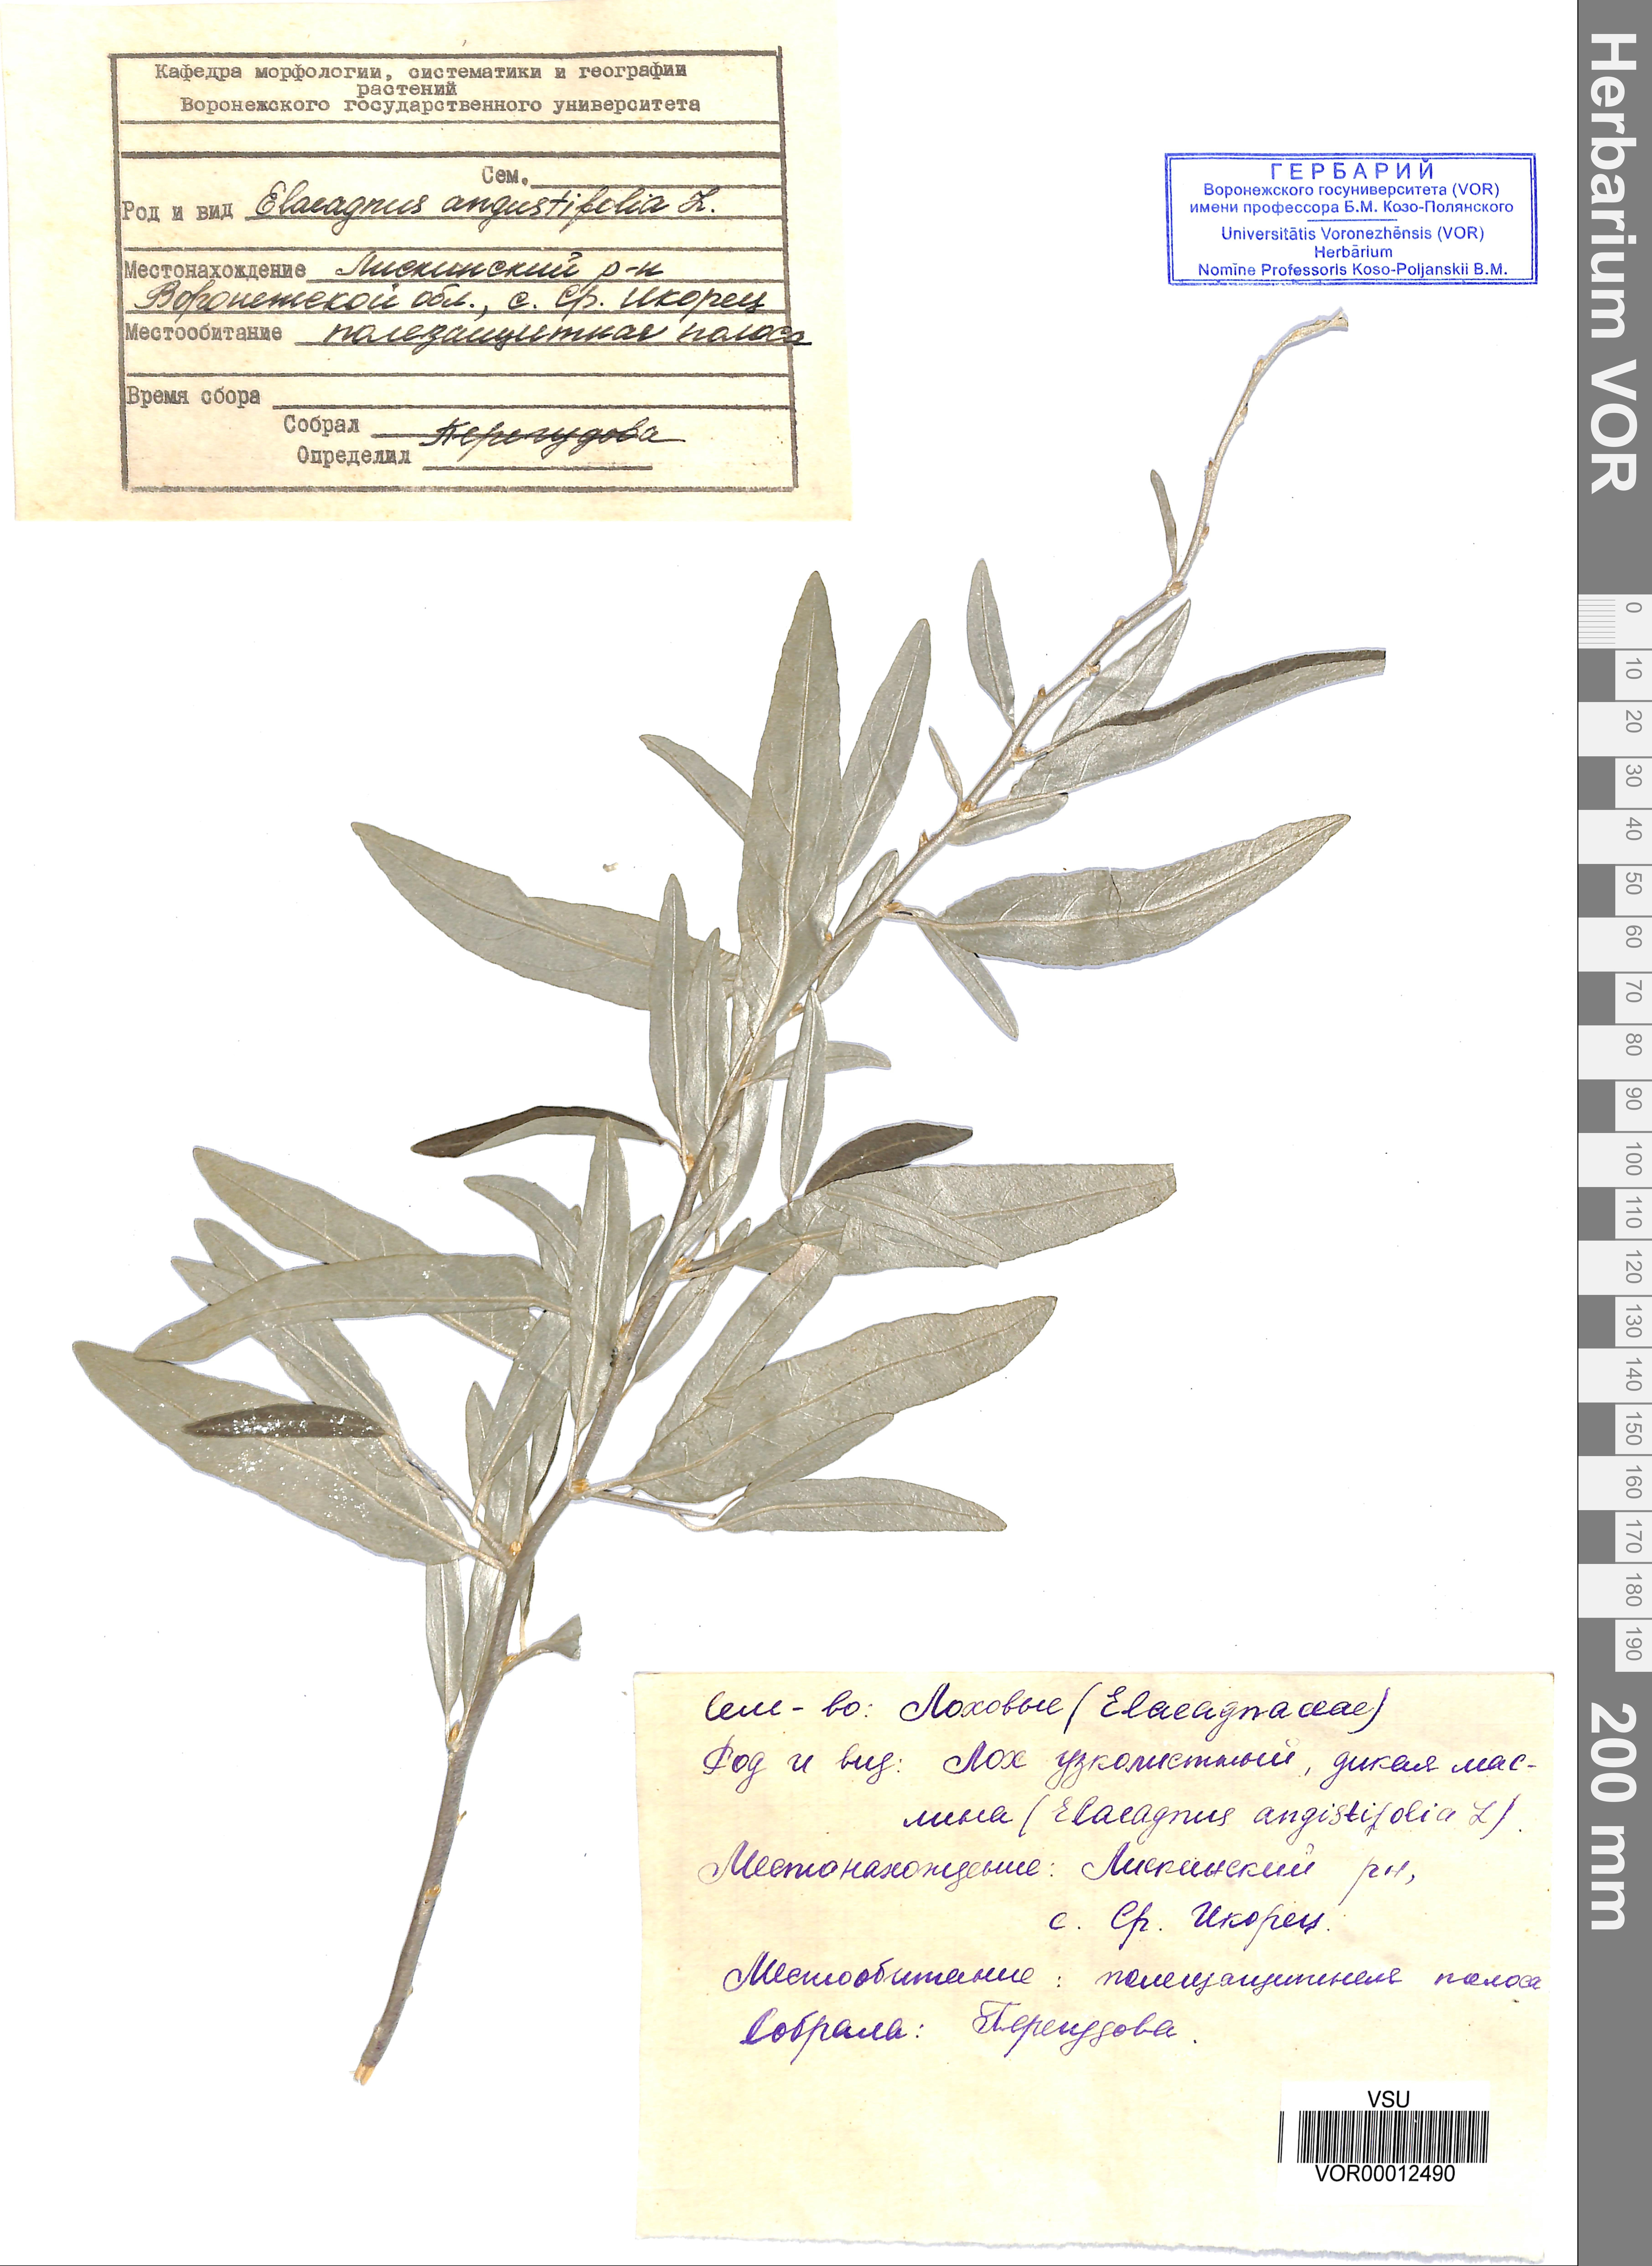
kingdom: Plantae
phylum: Tracheophyta
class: Magnoliopsida
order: Rosales
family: Elaeagnaceae
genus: Elaeagnus
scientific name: Elaeagnus angustifolia
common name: Russian olive
